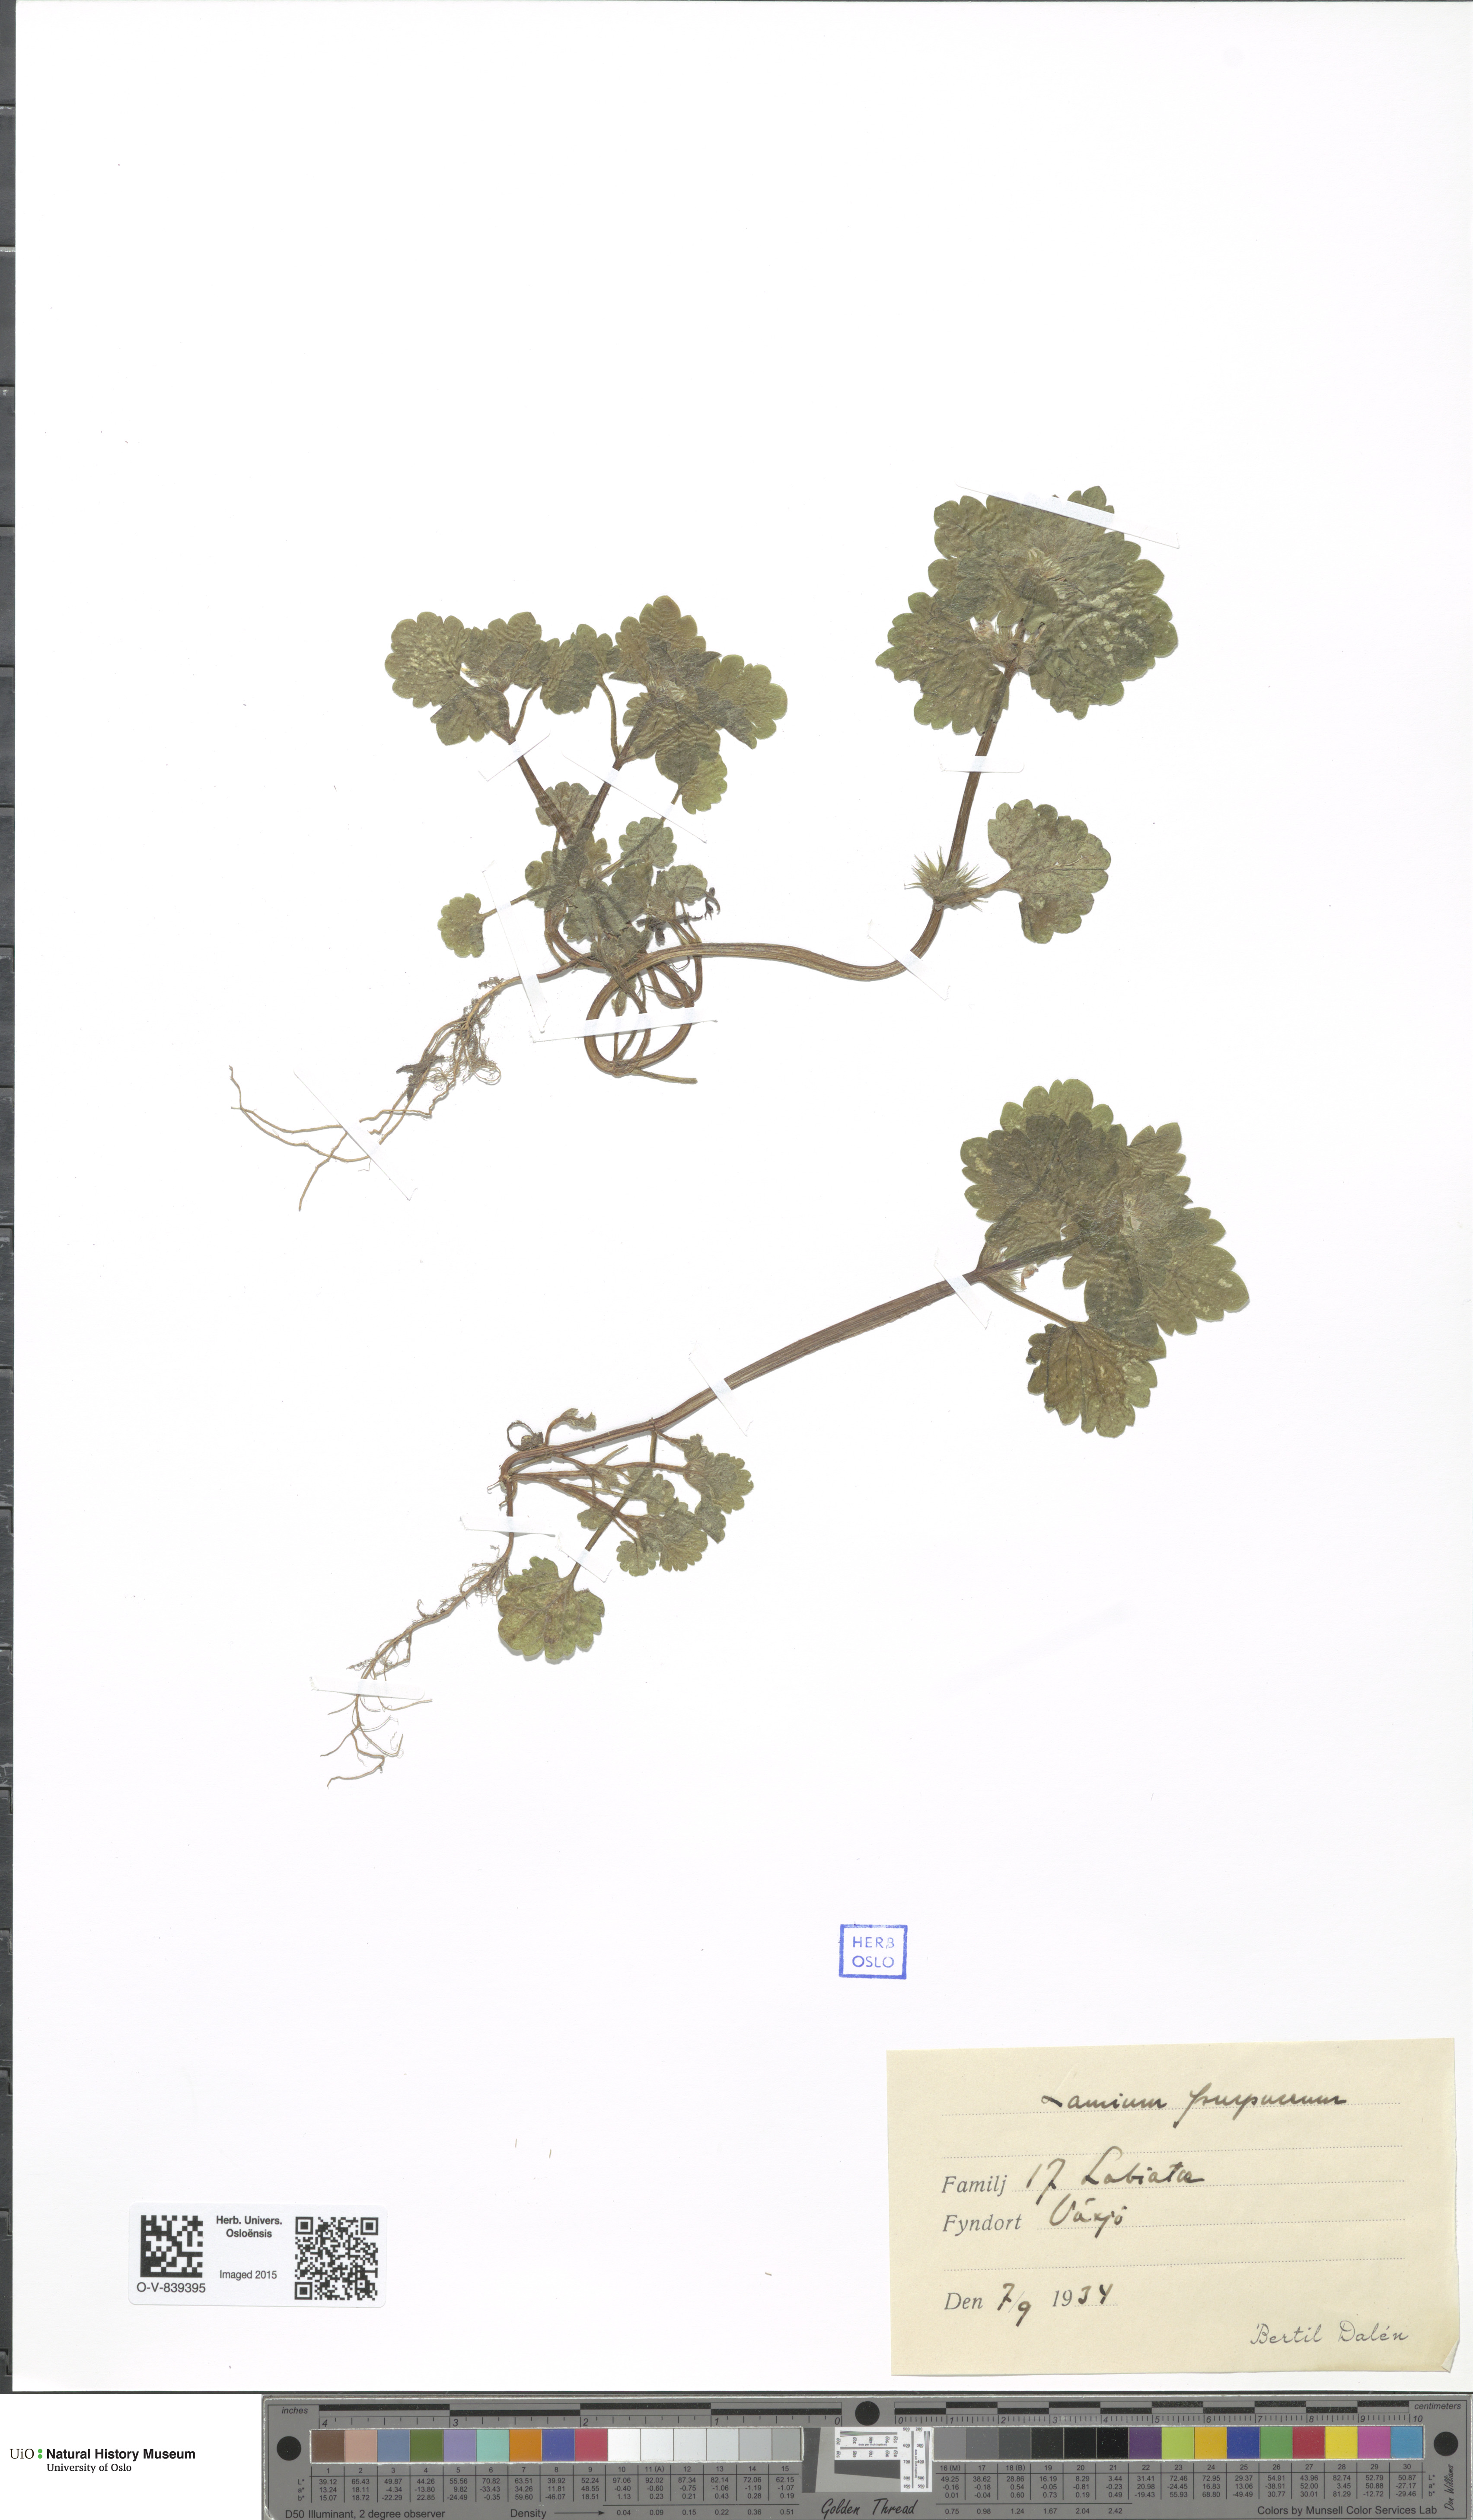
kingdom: Plantae
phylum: Tracheophyta
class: Magnoliopsida
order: Lamiales
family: Lamiaceae
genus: Lamium
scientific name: Lamium purpureum
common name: Red dead-nettle
